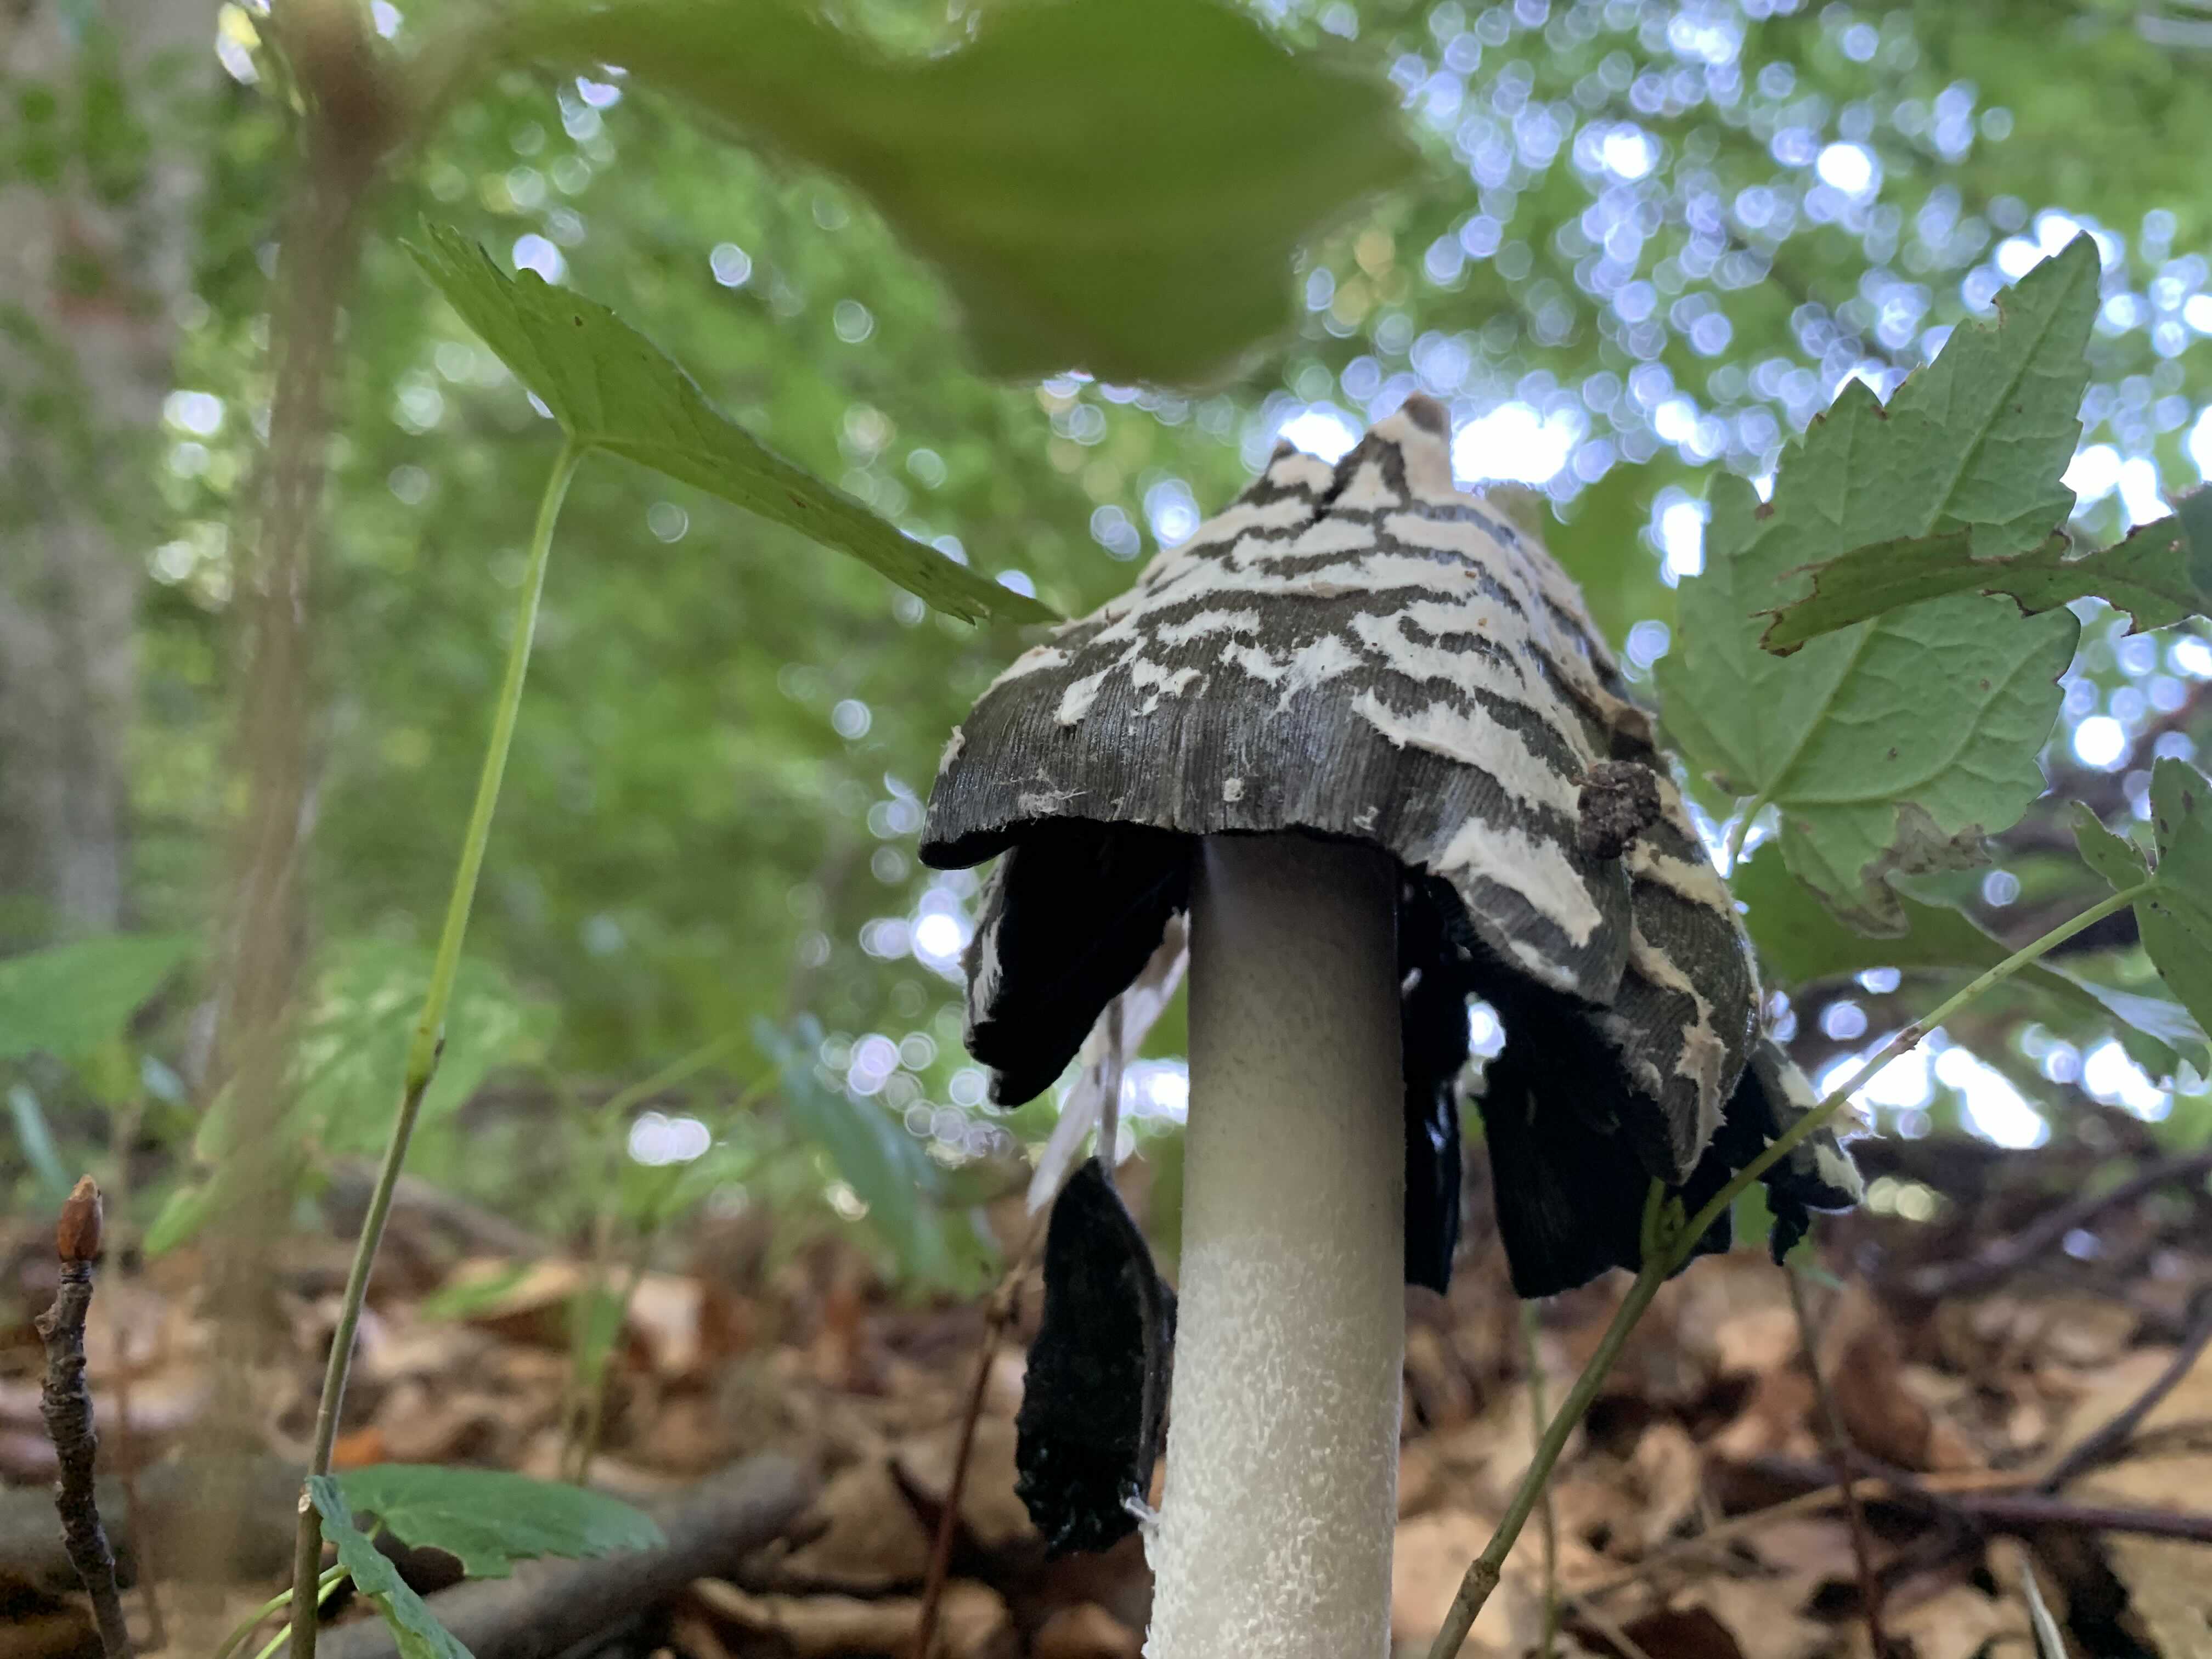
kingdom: Fungi
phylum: Basidiomycota
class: Agaricomycetes
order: Agaricales
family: Psathyrellaceae
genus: Coprinopsis
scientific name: Coprinopsis picacea
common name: skade-blækhat
